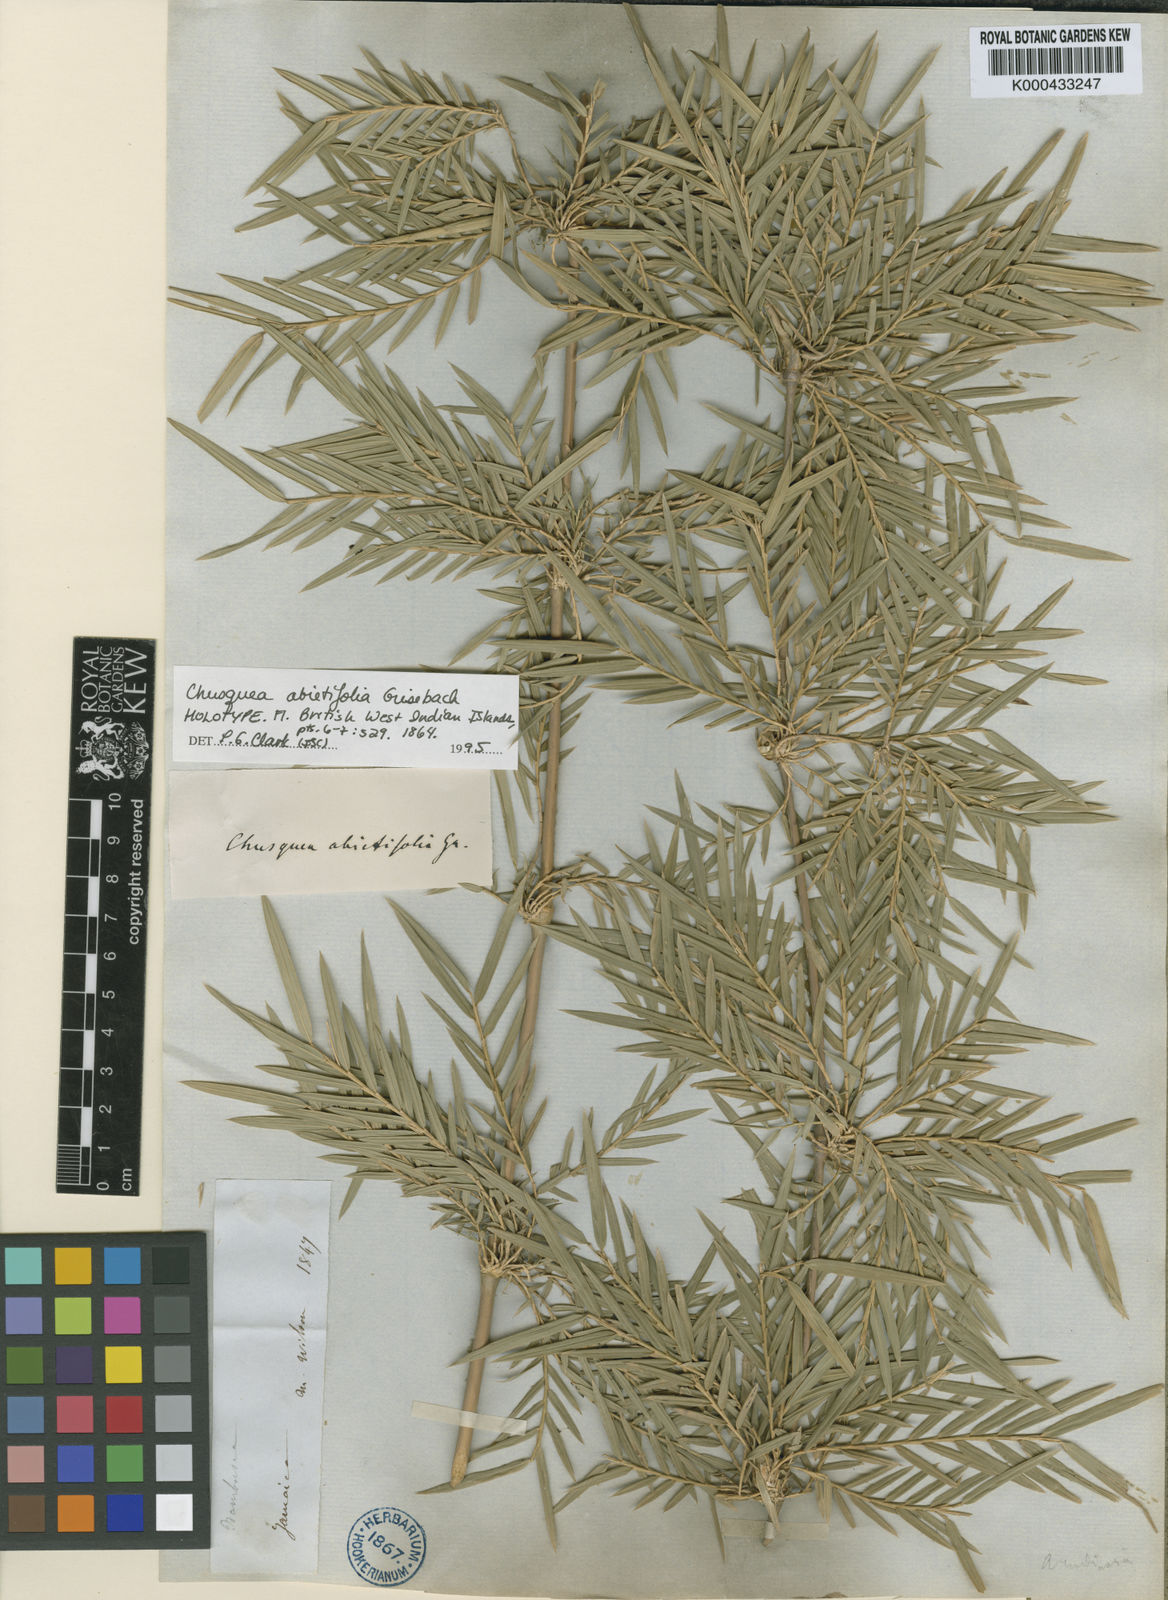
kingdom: Plantae
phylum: Tracheophyta
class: Liliopsida
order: Poales
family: Poaceae
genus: Chusquea
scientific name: Chusquea abietifolia
